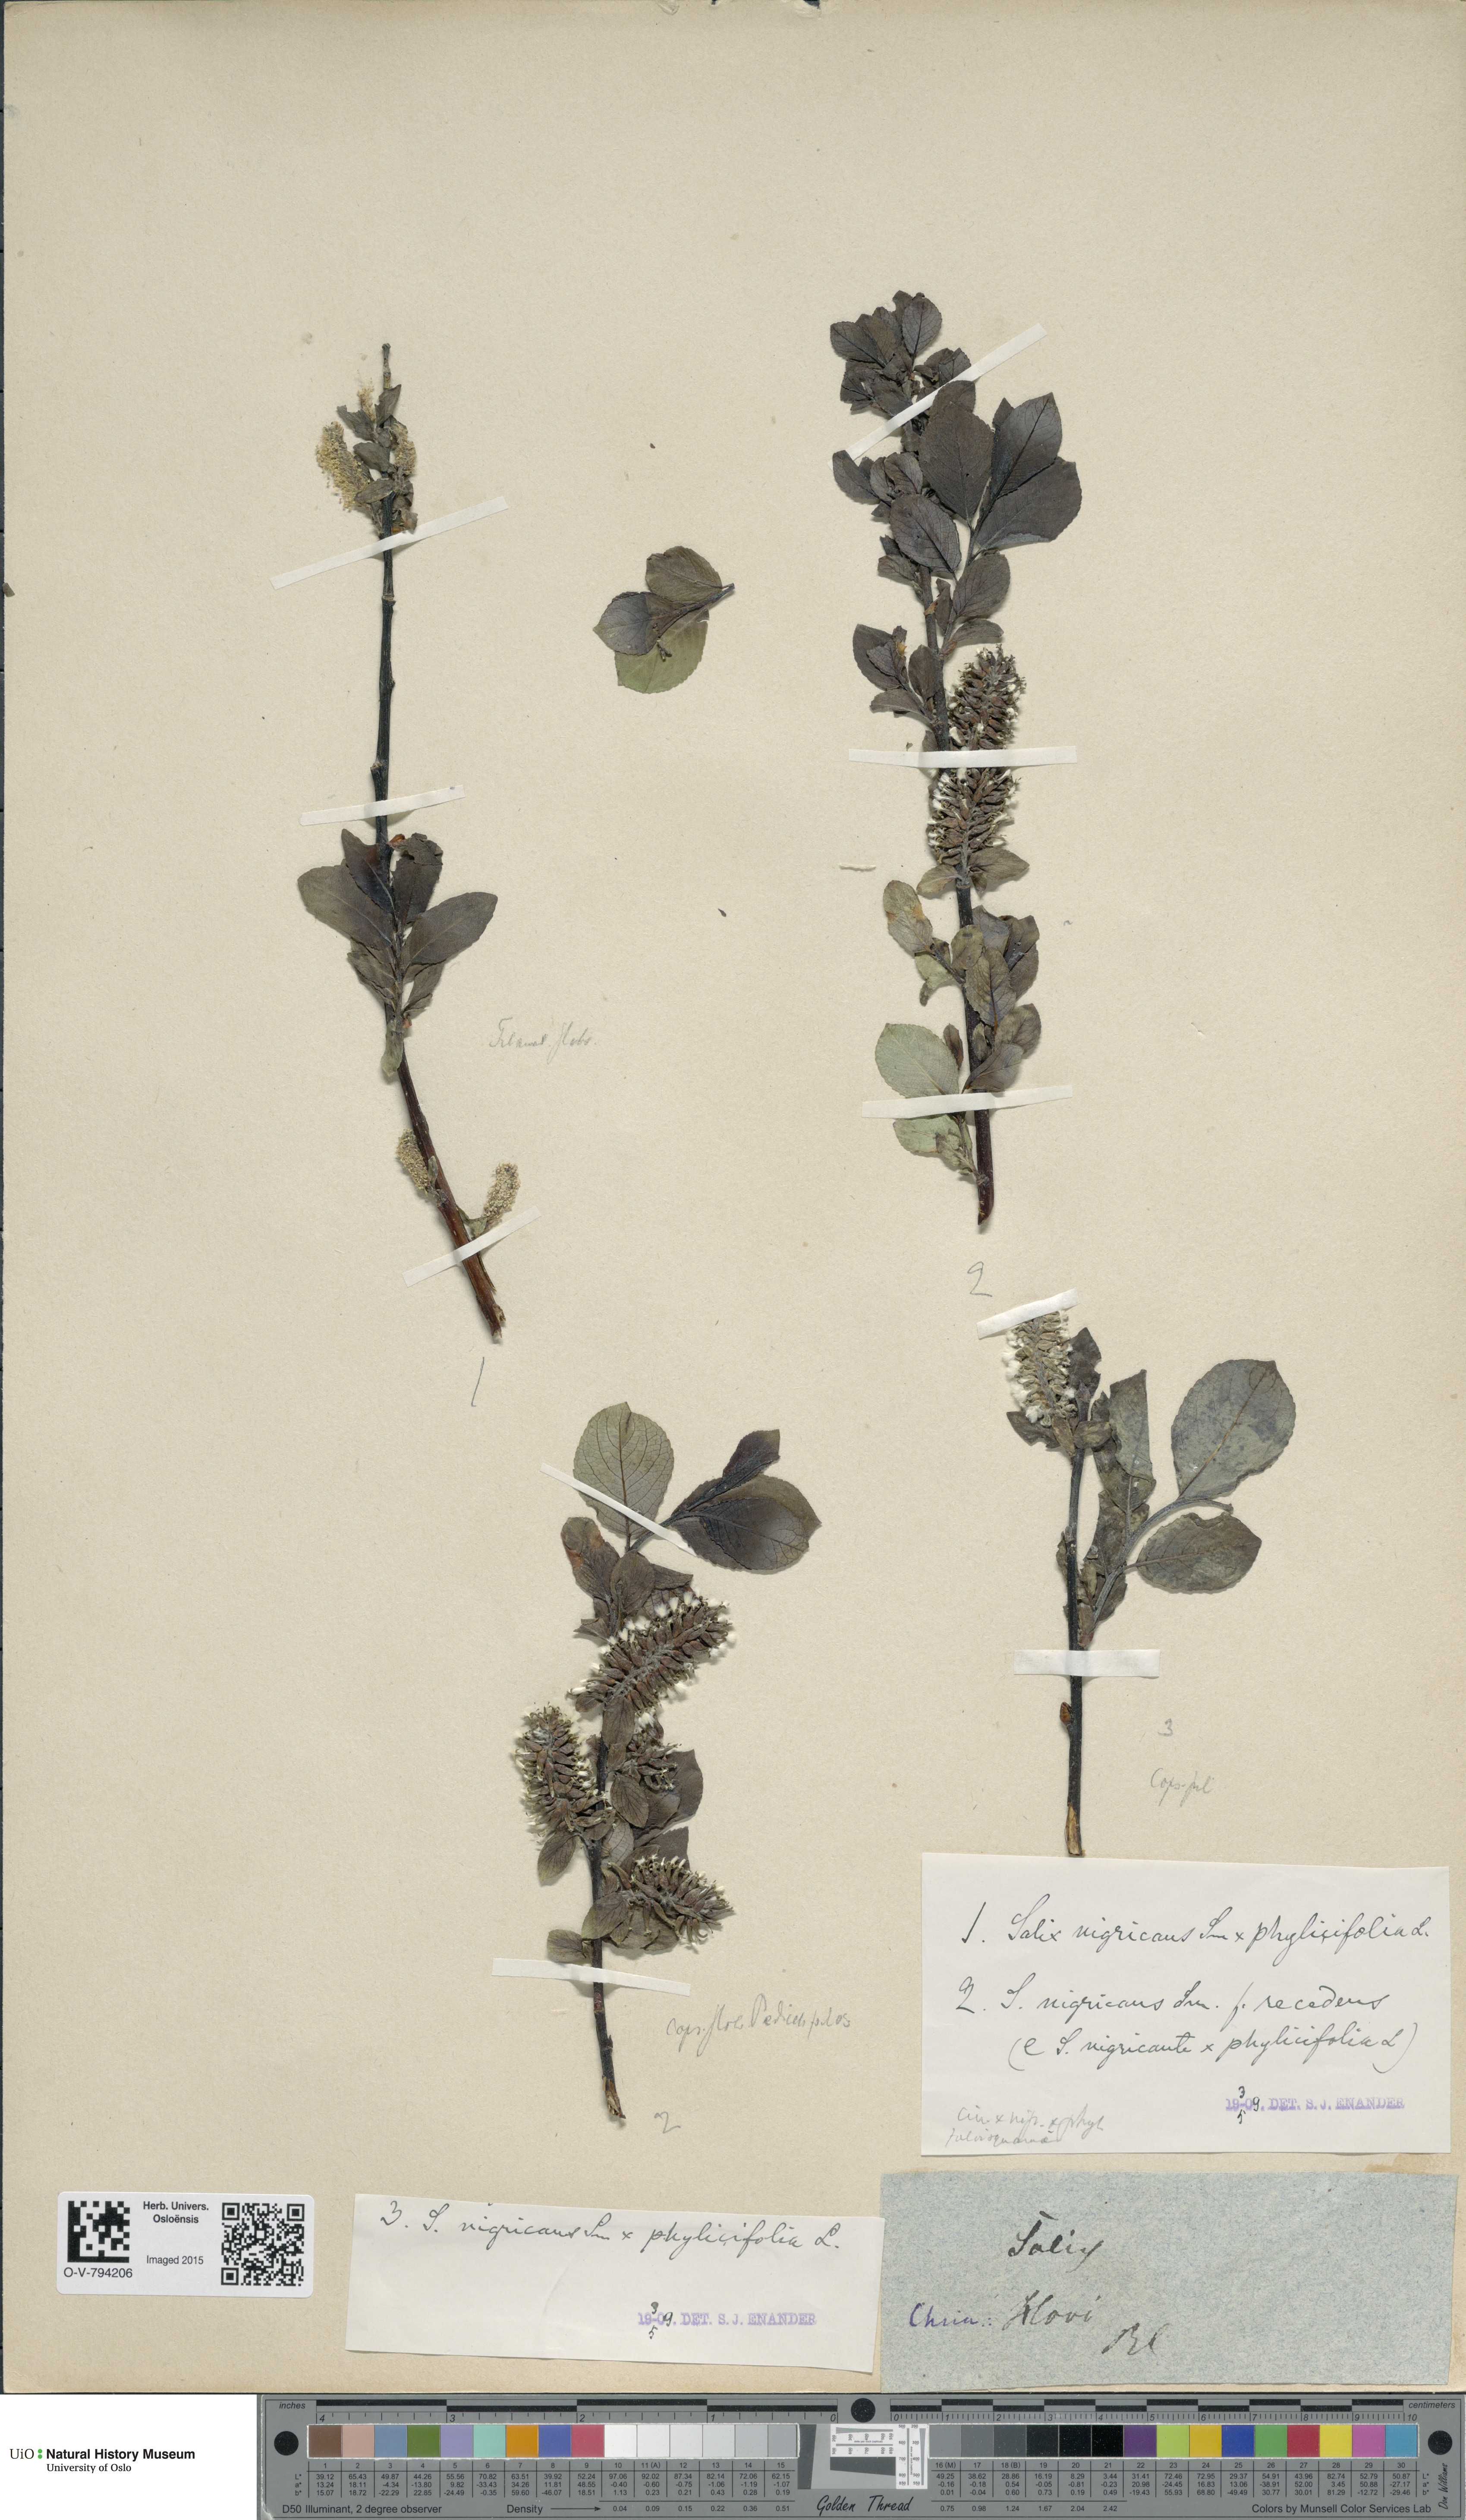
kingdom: Plantae
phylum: Tracheophyta
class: Magnoliopsida
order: Malpighiales
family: Salicaceae
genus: Salix
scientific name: Salix
